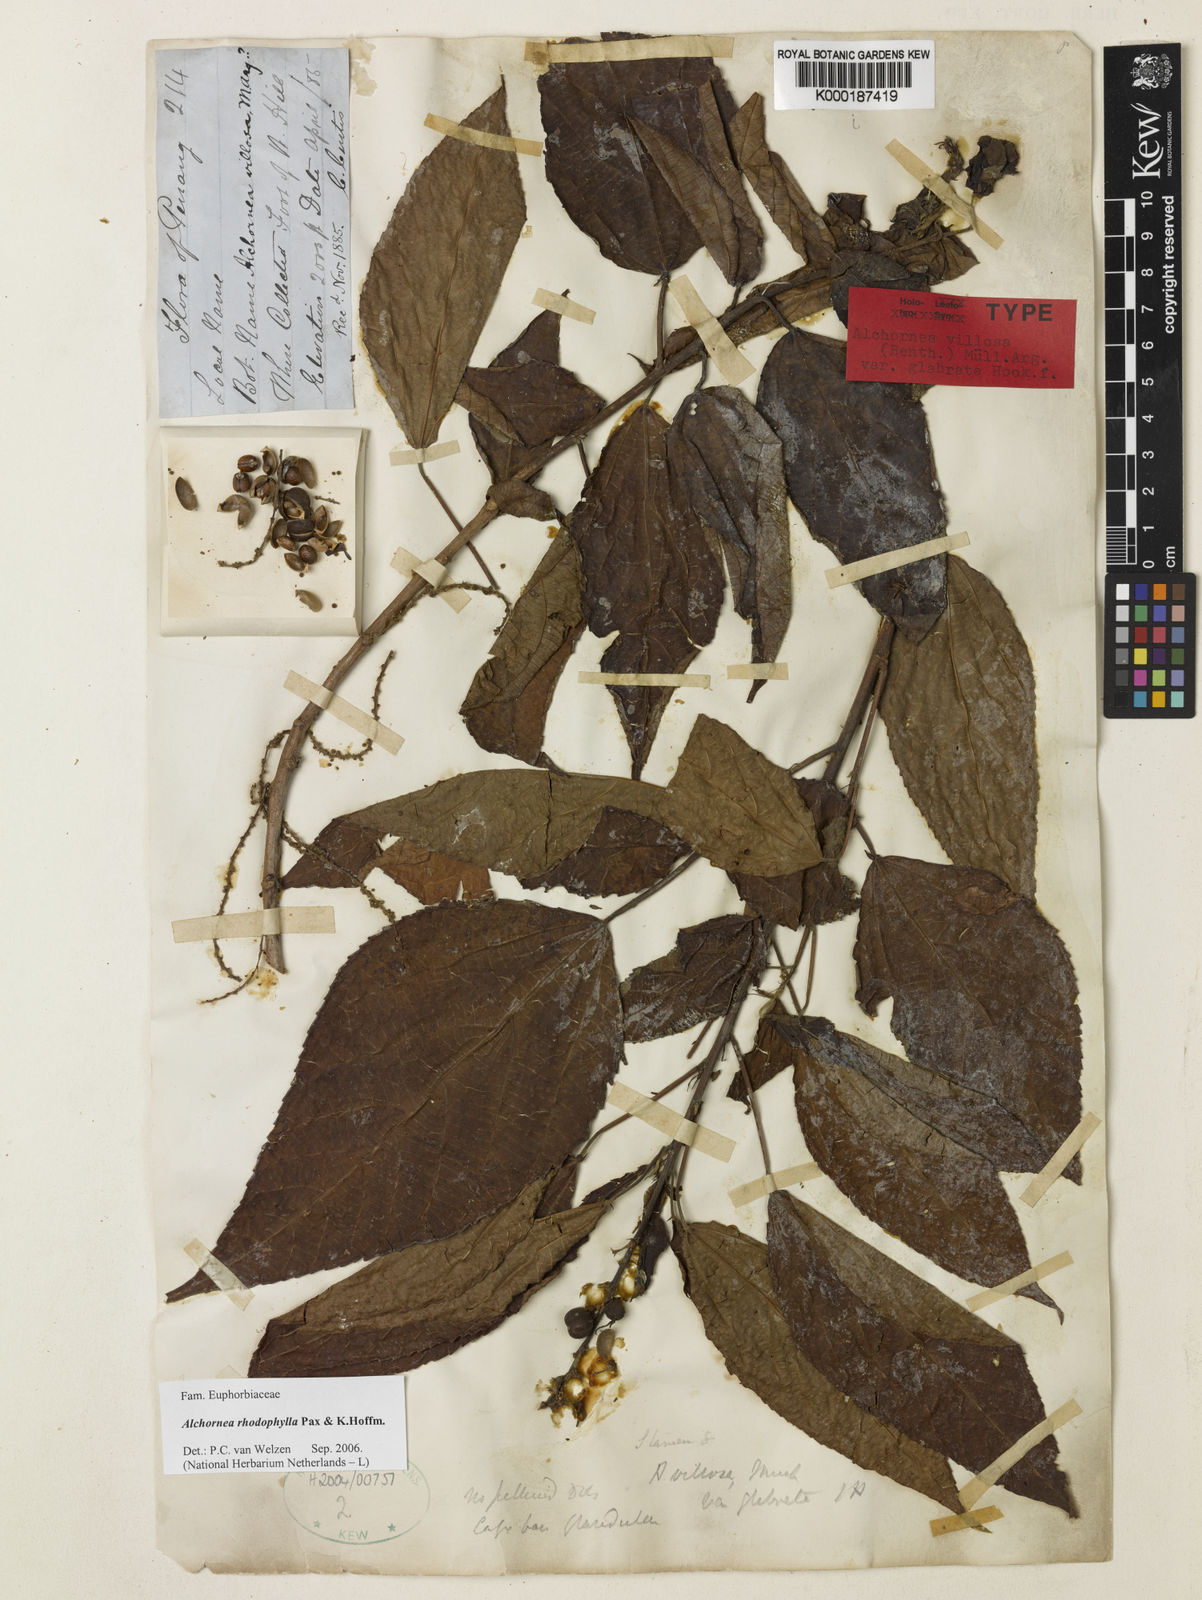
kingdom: Plantae
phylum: Tracheophyta
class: Magnoliopsida
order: Malpighiales
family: Euphorbiaceae
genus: Alchornea
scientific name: Alchornea rhodophylla
